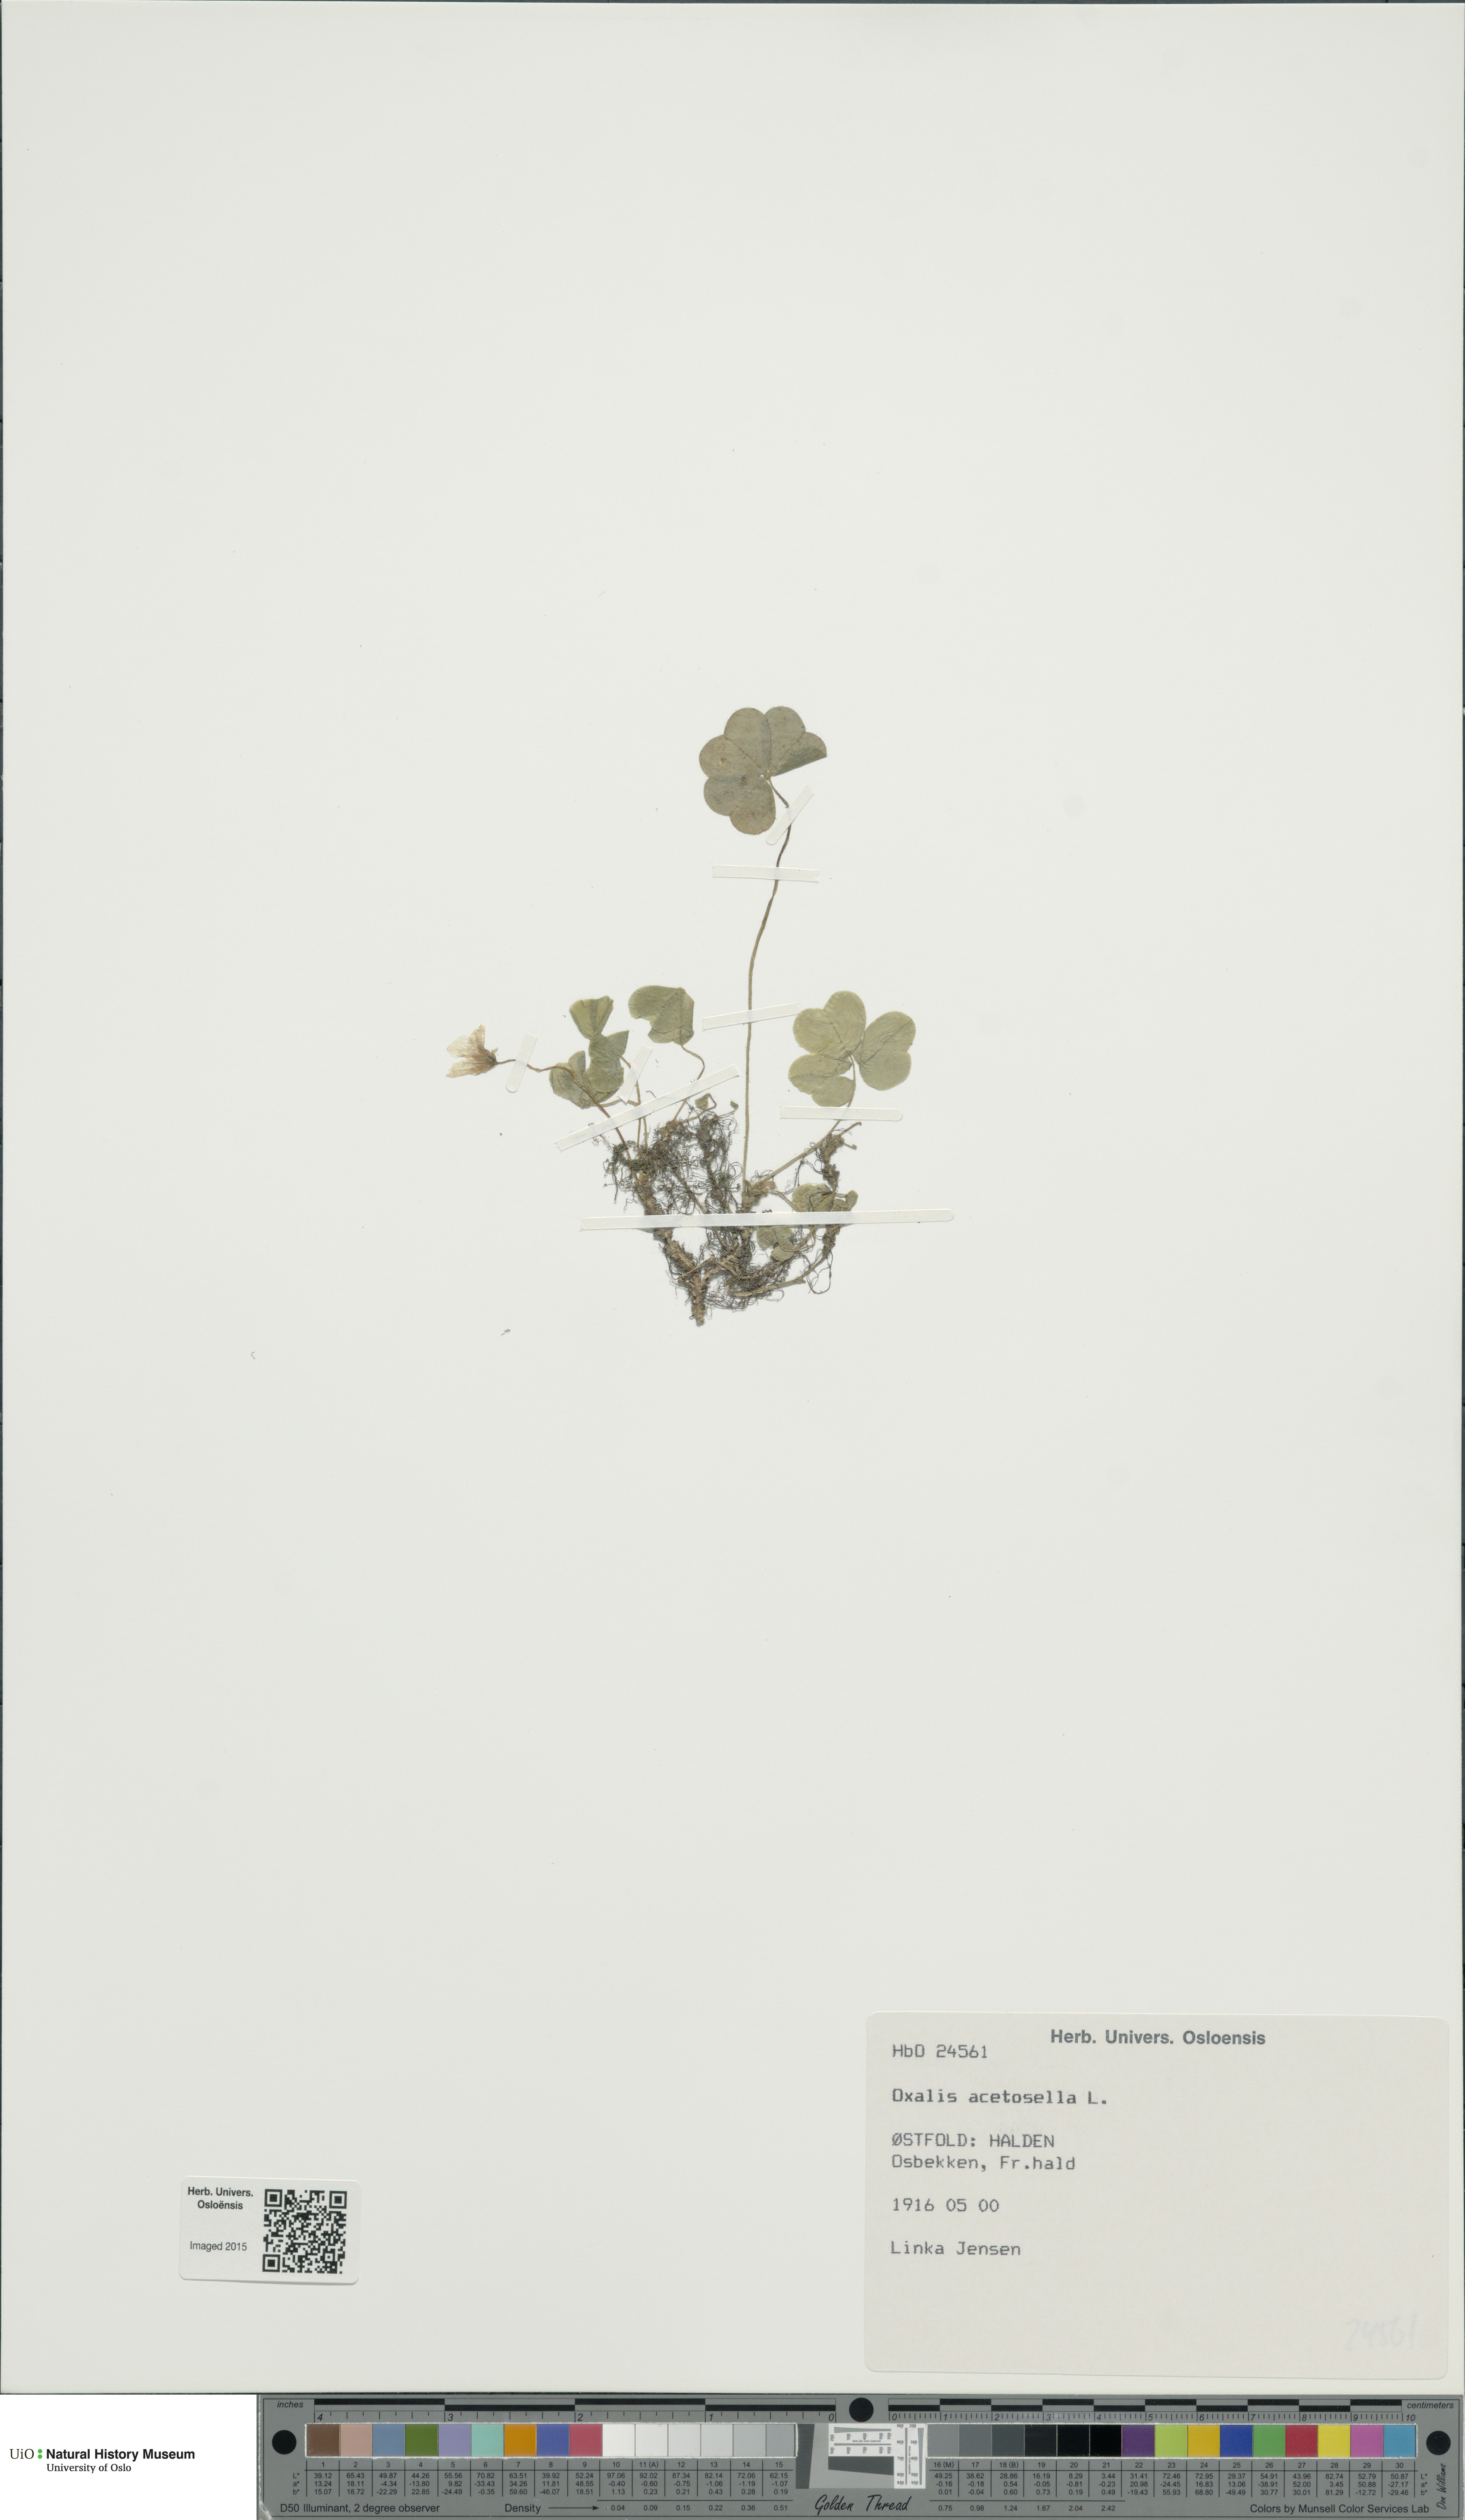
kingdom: Plantae
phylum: Tracheophyta
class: Magnoliopsida
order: Oxalidales
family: Oxalidaceae
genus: Oxalis
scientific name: Oxalis acetosella
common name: Wood-sorrel
